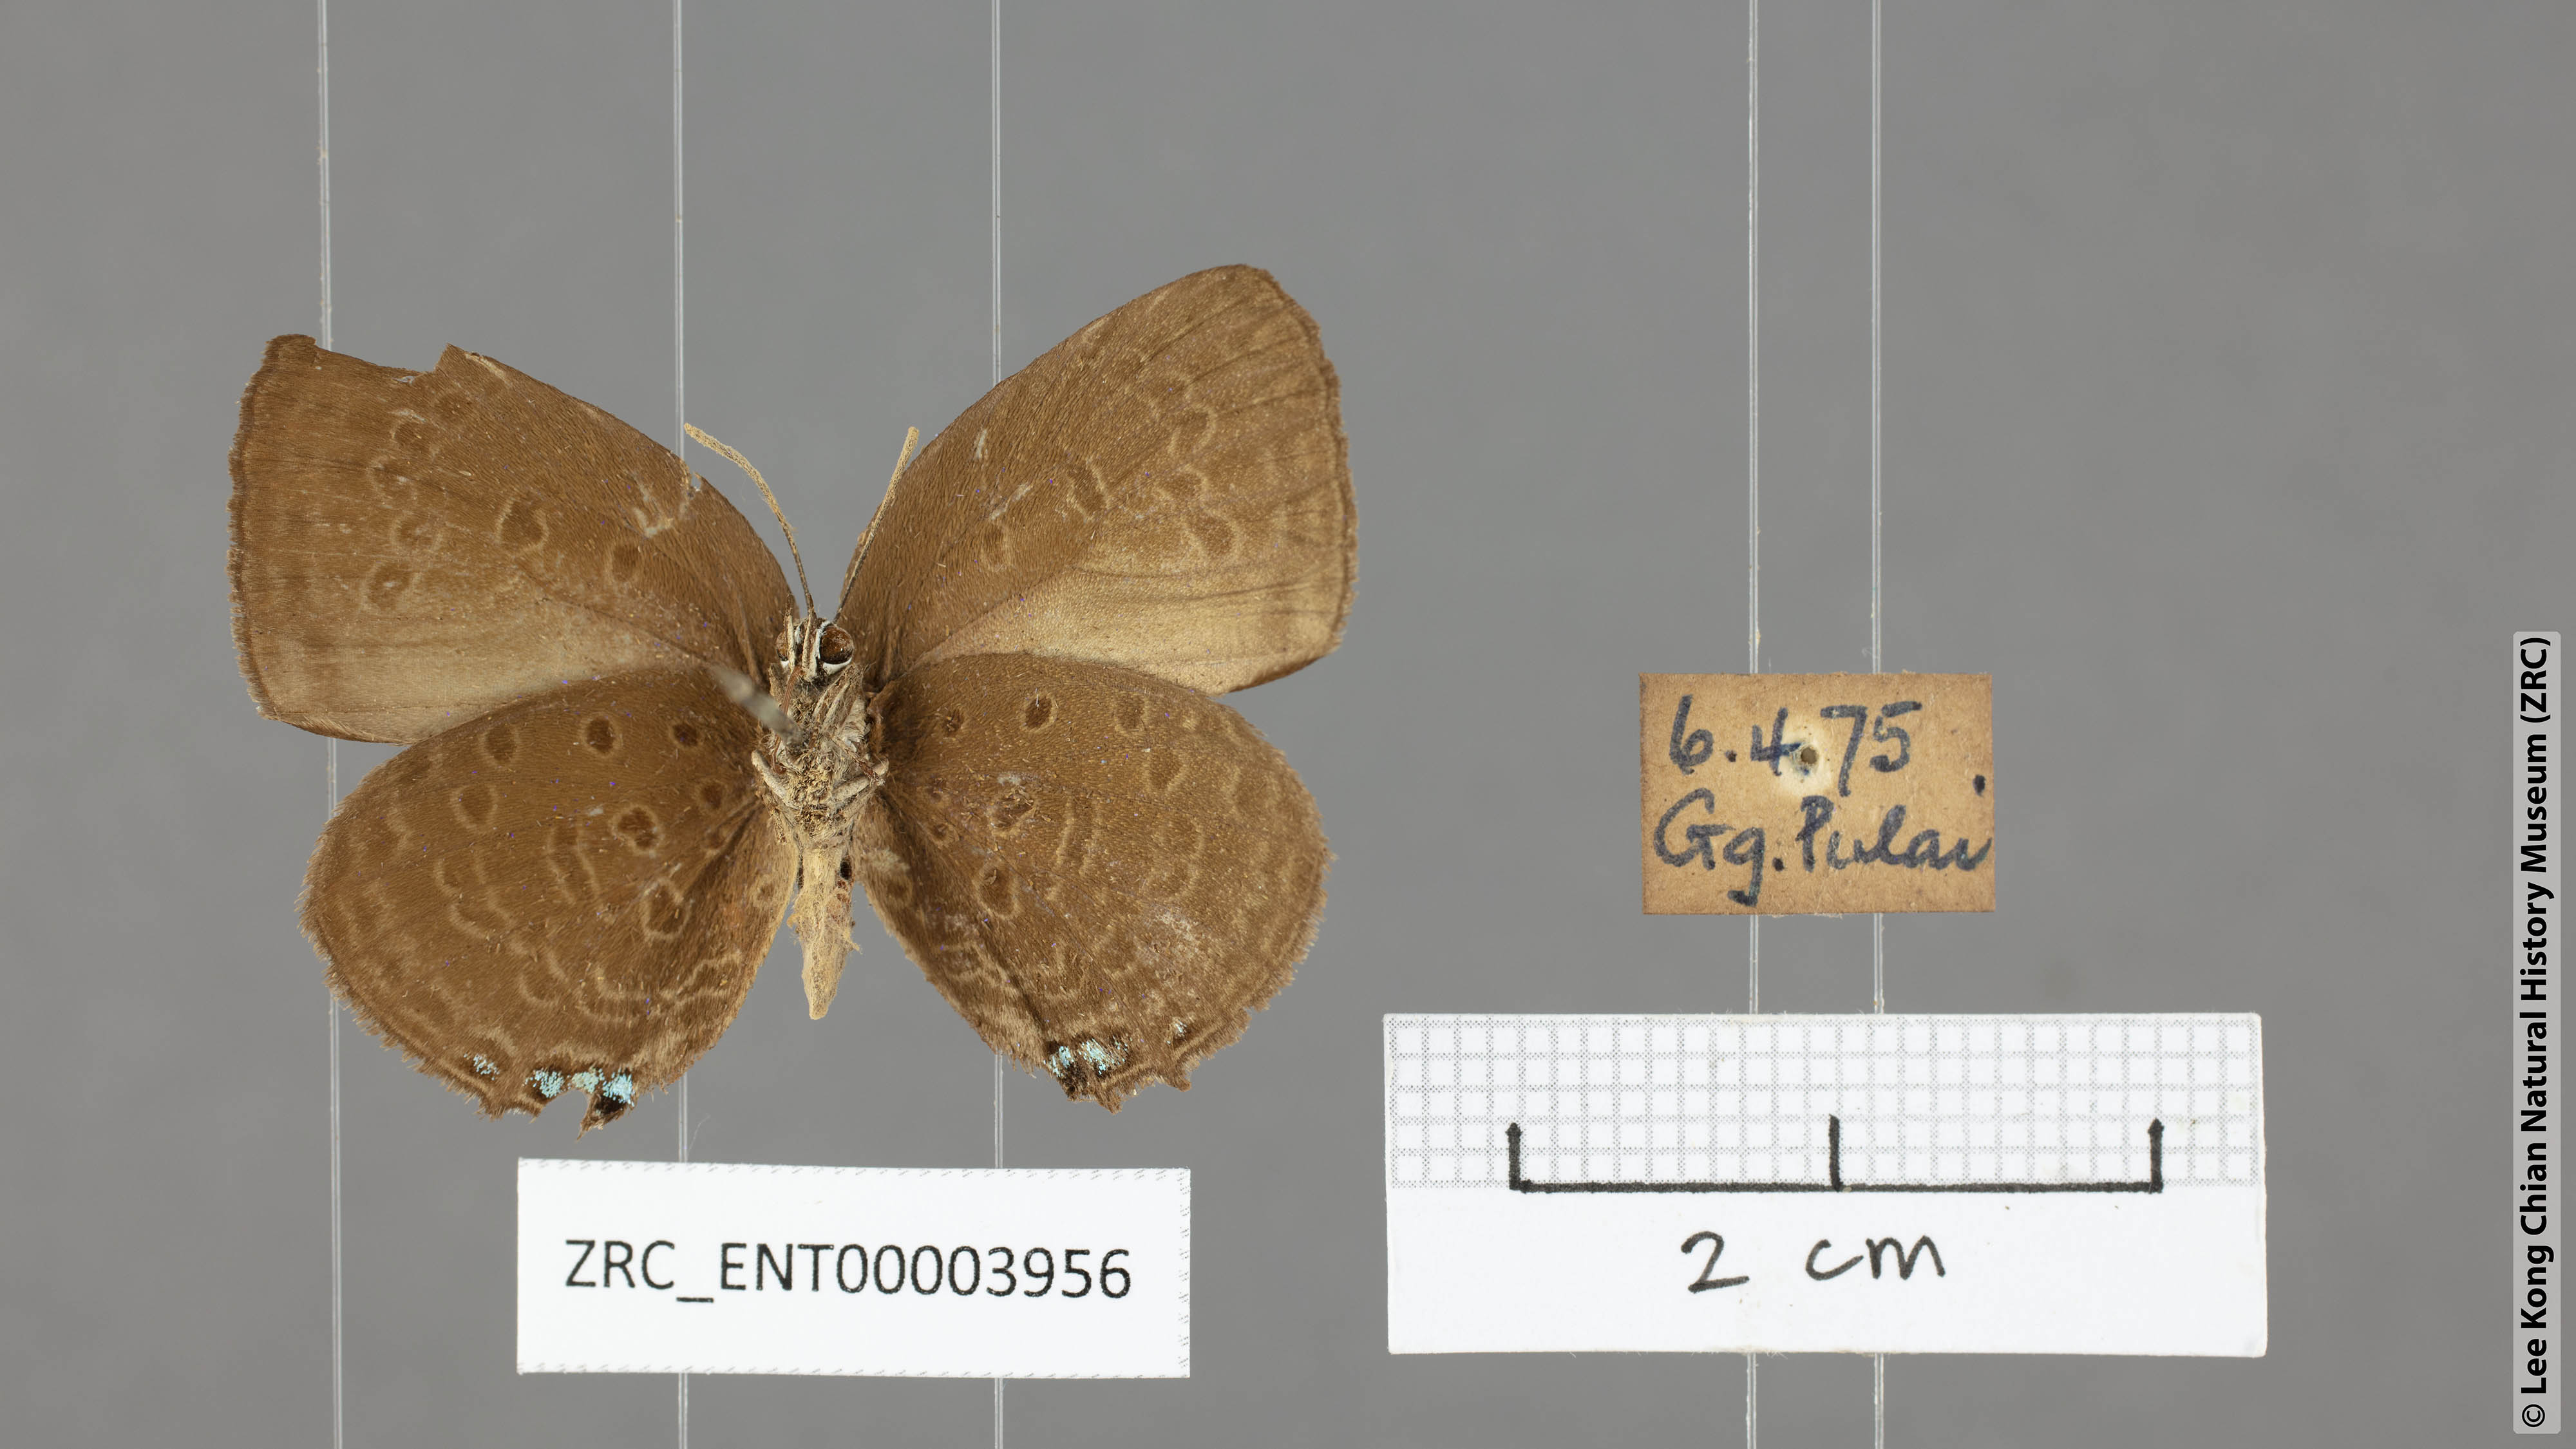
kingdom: Animalia
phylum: Arthropoda
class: Insecta
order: Lepidoptera
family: Lycaenidae
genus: Arhopala
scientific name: Arhopala hypomuta
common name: Violet oakblue
